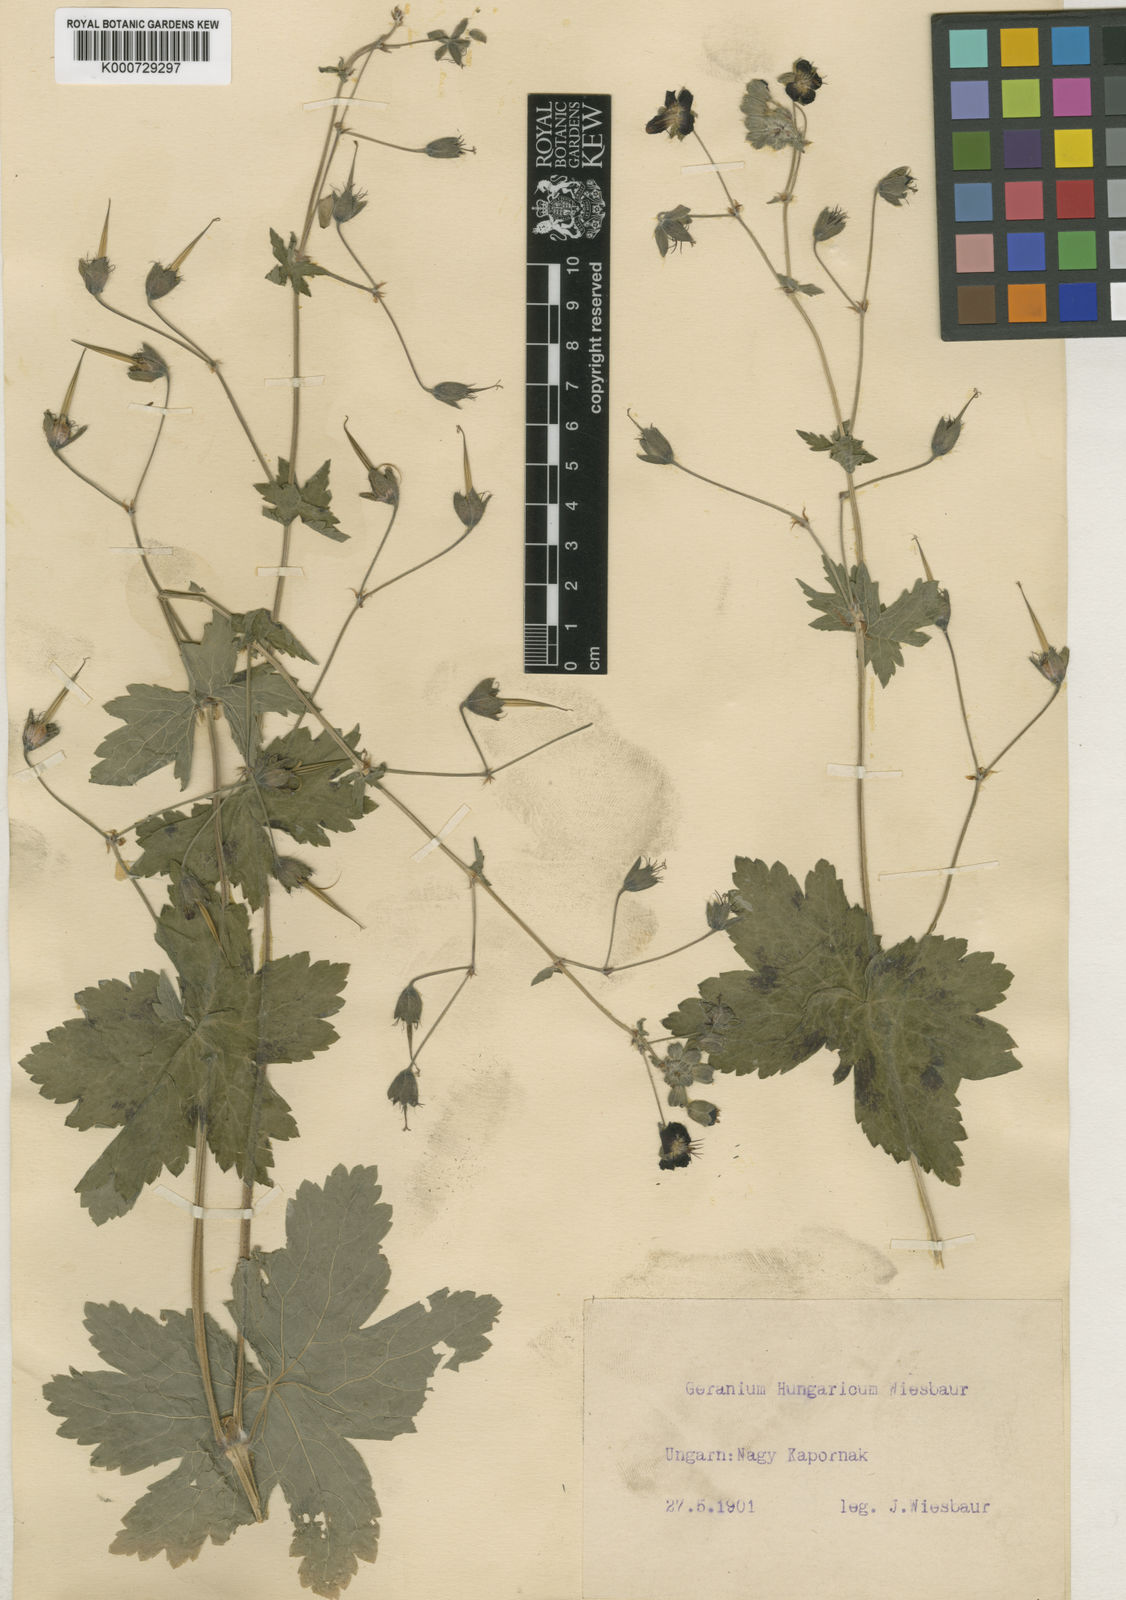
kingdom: Plantae
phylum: Tracheophyta
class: Magnoliopsida
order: Geraniales
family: Geraniaceae
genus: Geranium
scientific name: Geranium phaeum
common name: Dusky crane's-bill
